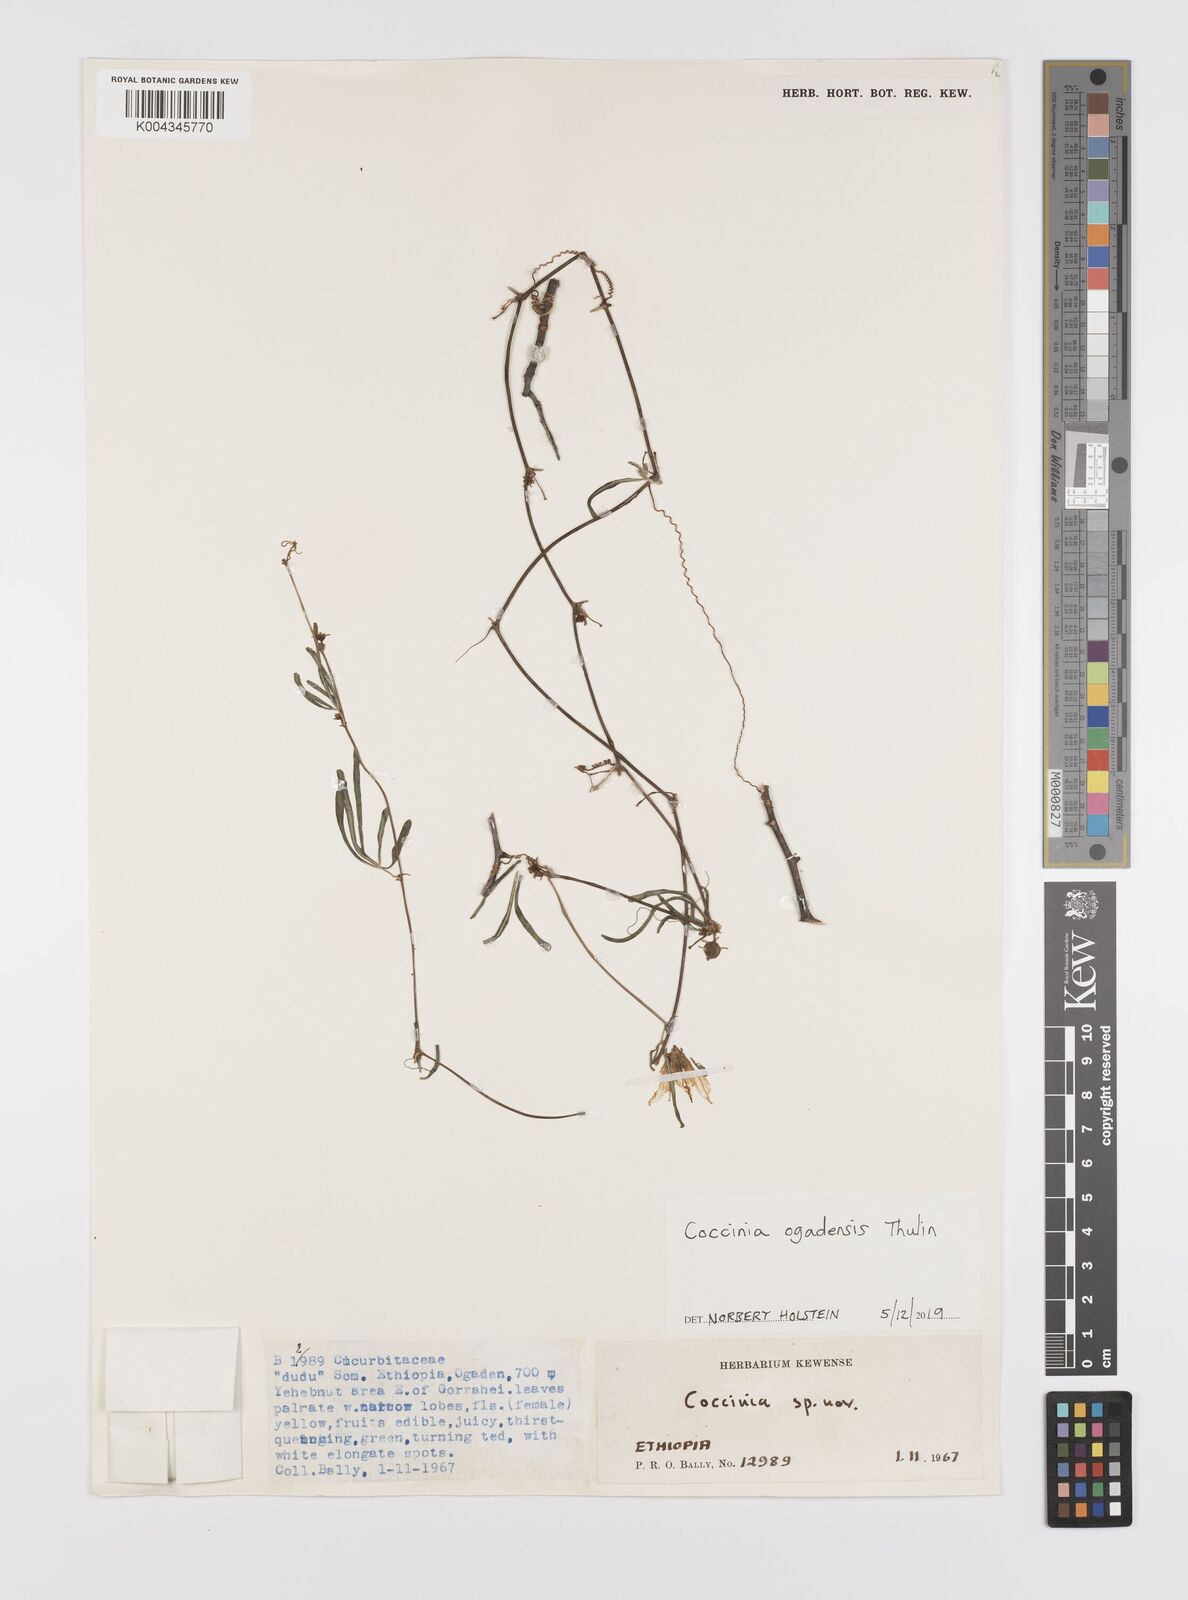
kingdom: Plantae
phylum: Tracheophyta
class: Magnoliopsida
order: Cucurbitales
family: Cucurbitaceae
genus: Coccinia
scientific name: Coccinia ogadensis
